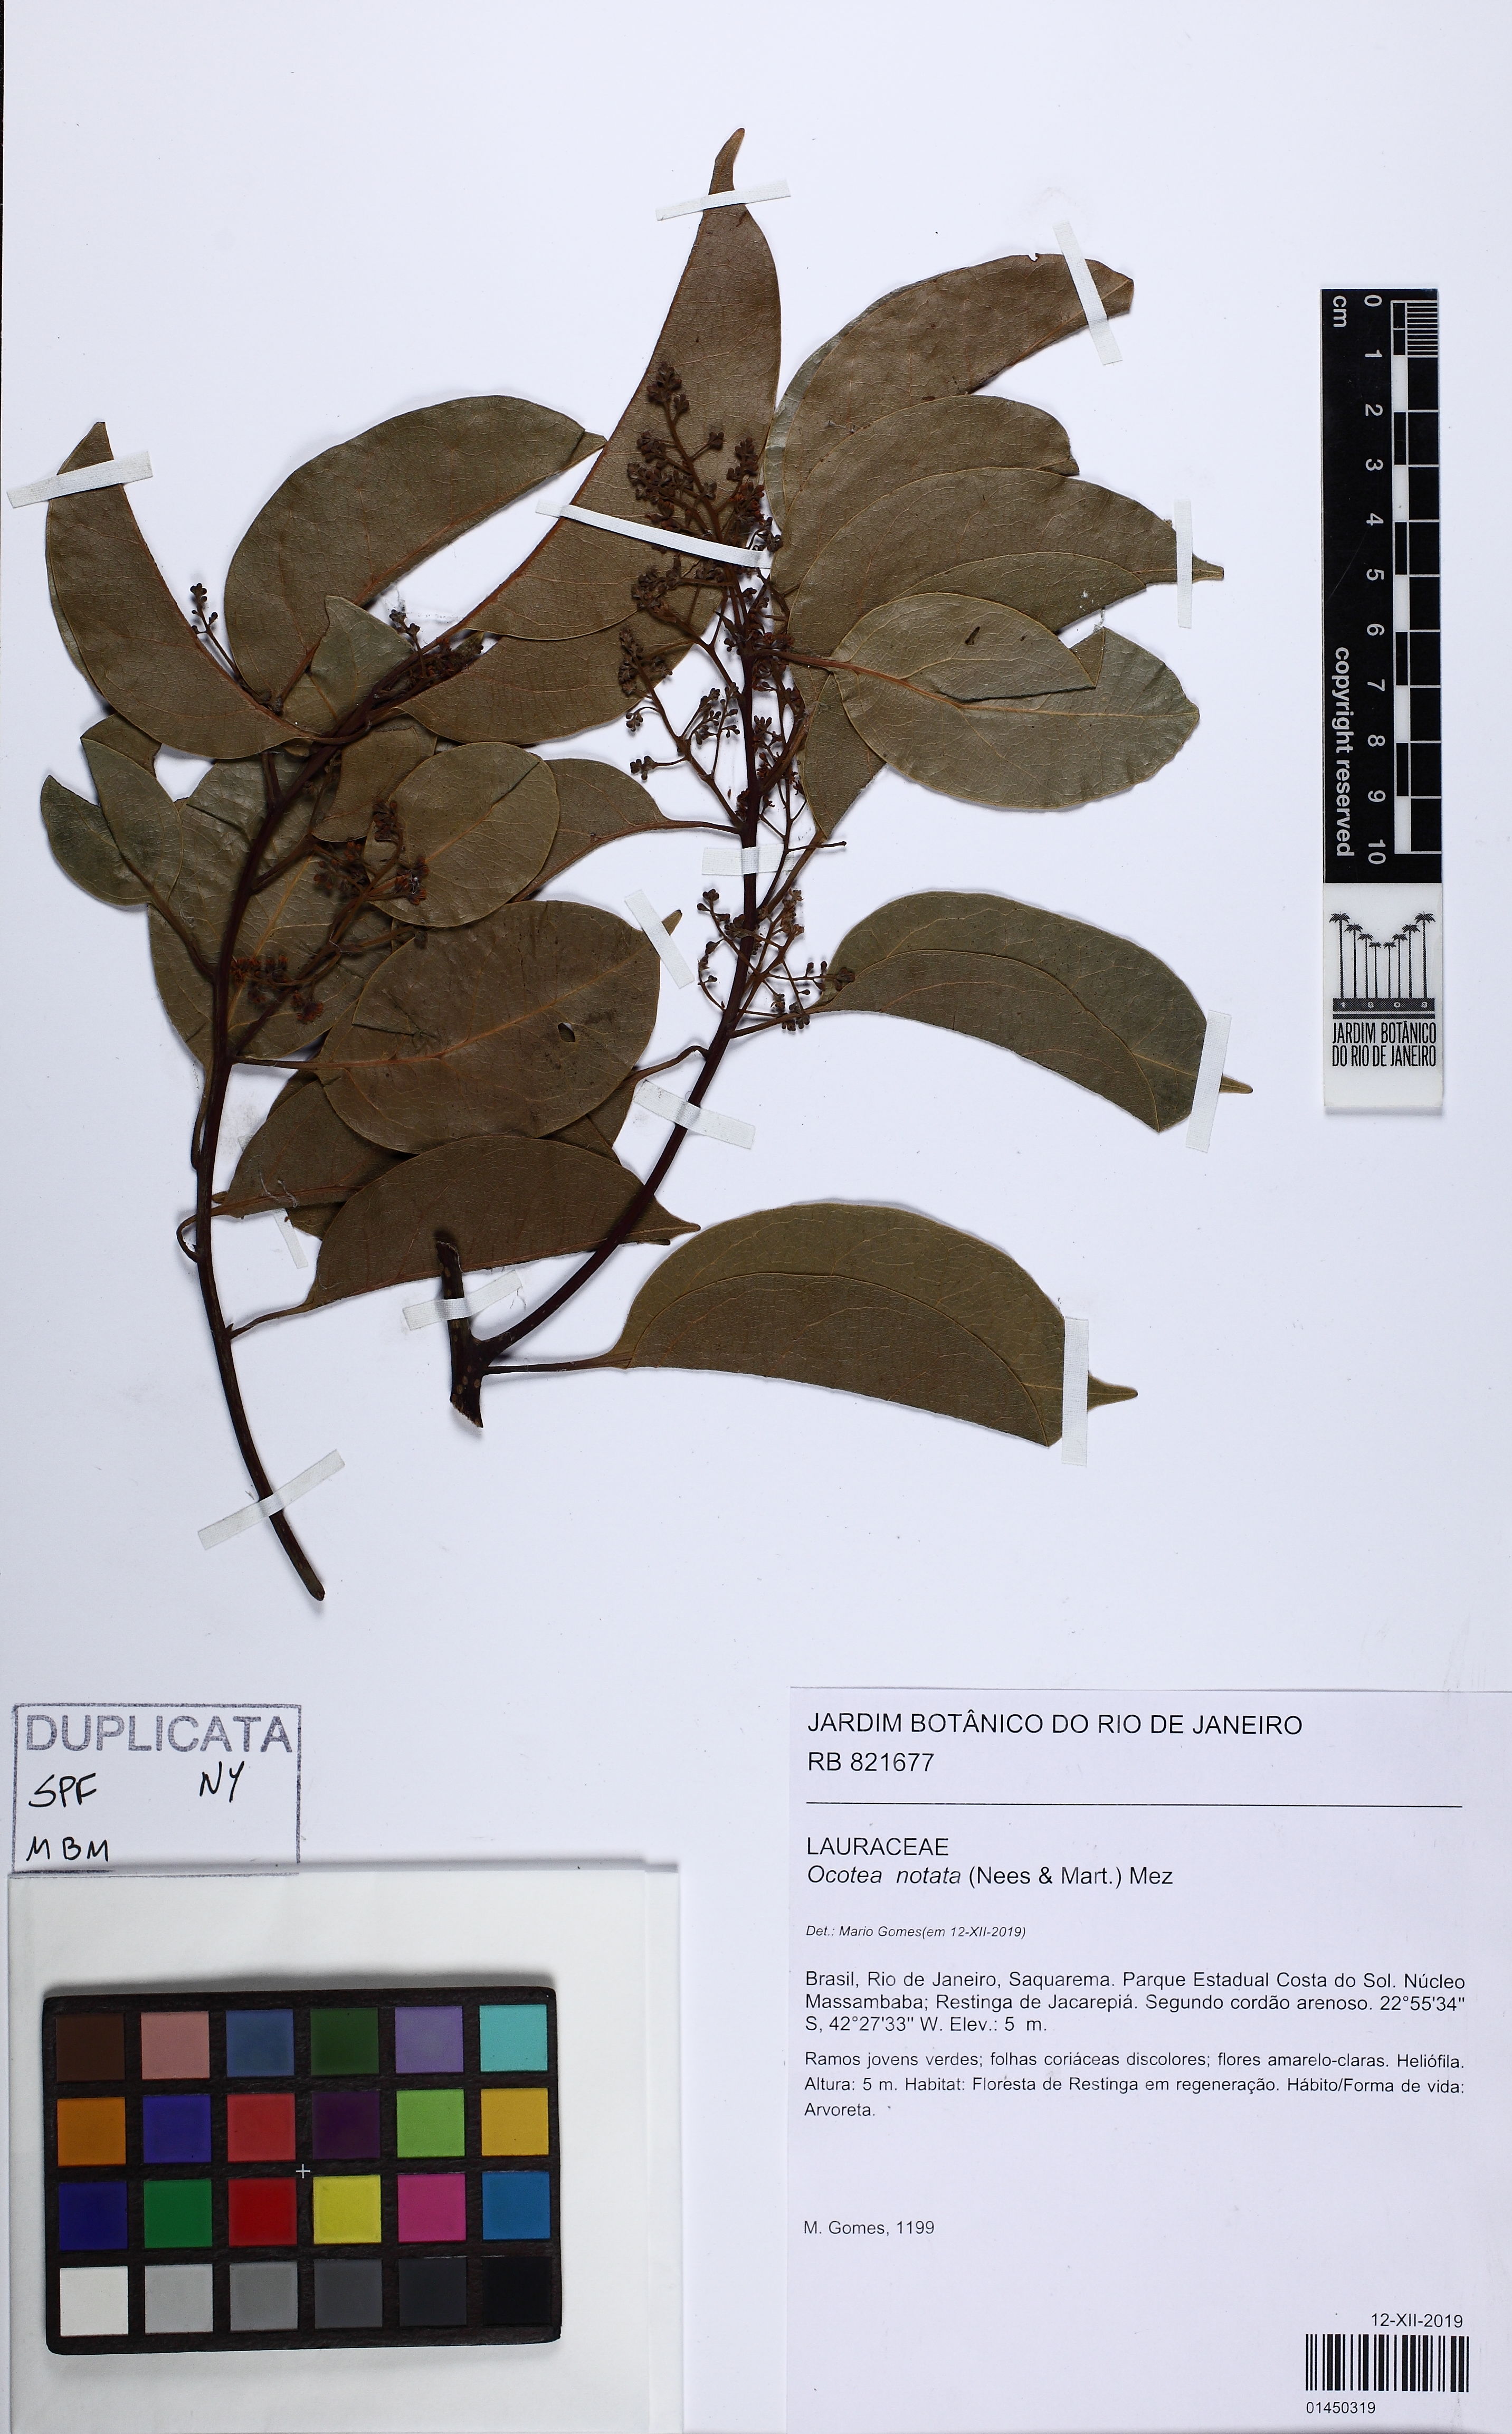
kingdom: Plantae
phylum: Tracheophyta
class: Magnoliopsida
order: Laurales
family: Lauraceae
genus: Mespilodaphne
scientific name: Mespilodaphne notata
